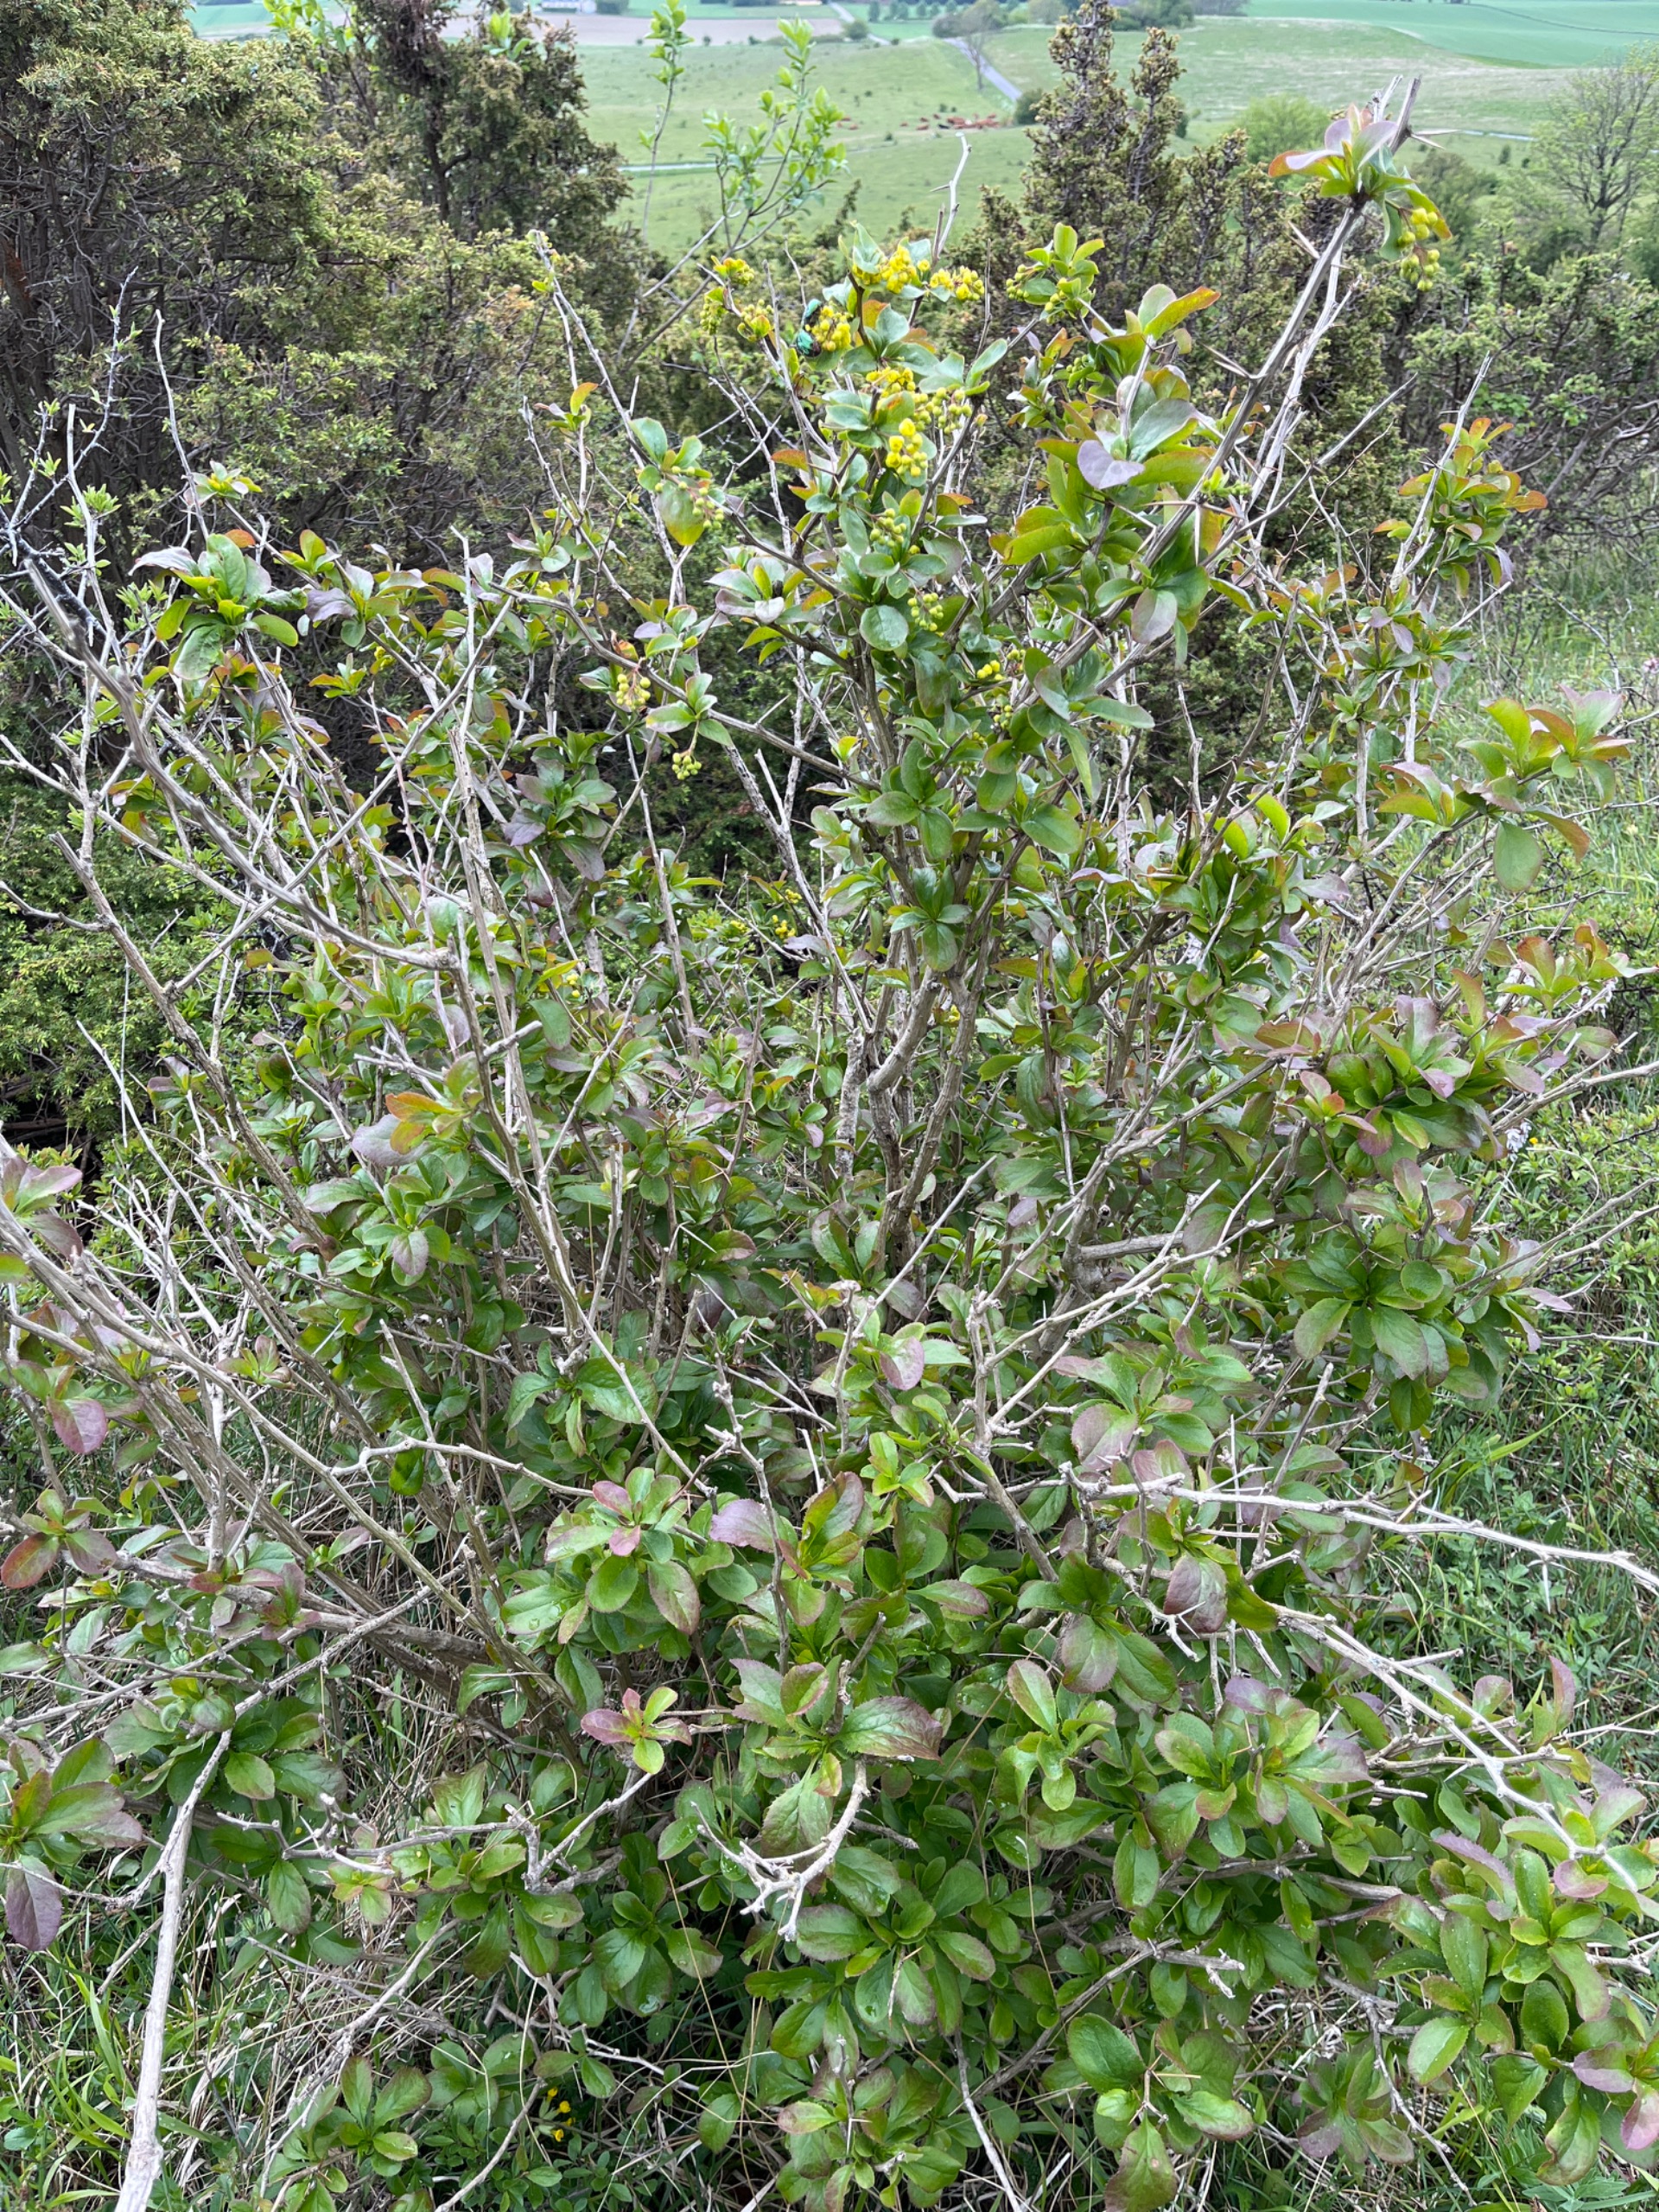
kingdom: Plantae
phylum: Tracheophyta
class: Magnoliopsida
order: Ranunculales
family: Berberidaceae
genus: Berberis
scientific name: Berberis vulgaris
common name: Almindelig berberis
